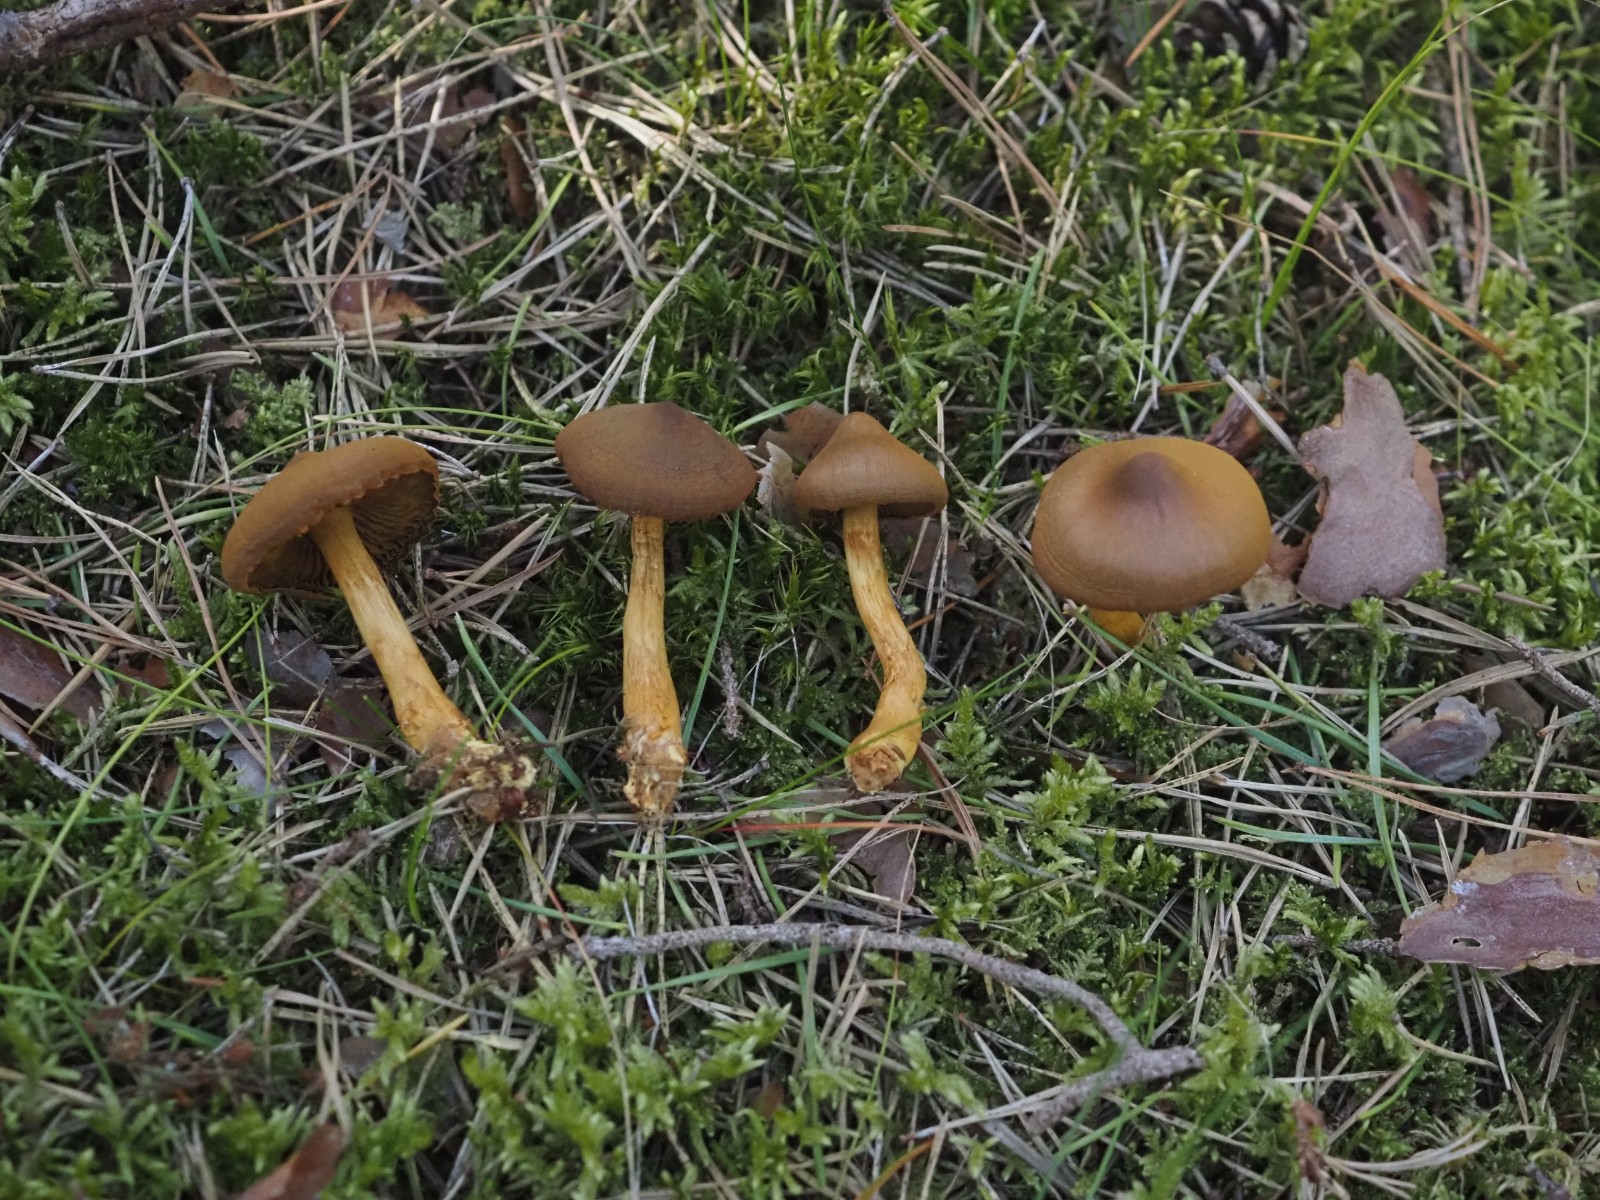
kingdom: Fungi
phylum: Basidiomycota
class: Agaricomycetes
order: Agaricales
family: Cortinariaceae
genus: Cortinarius
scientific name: Cortinarius
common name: cinnoberbladet slørhat
